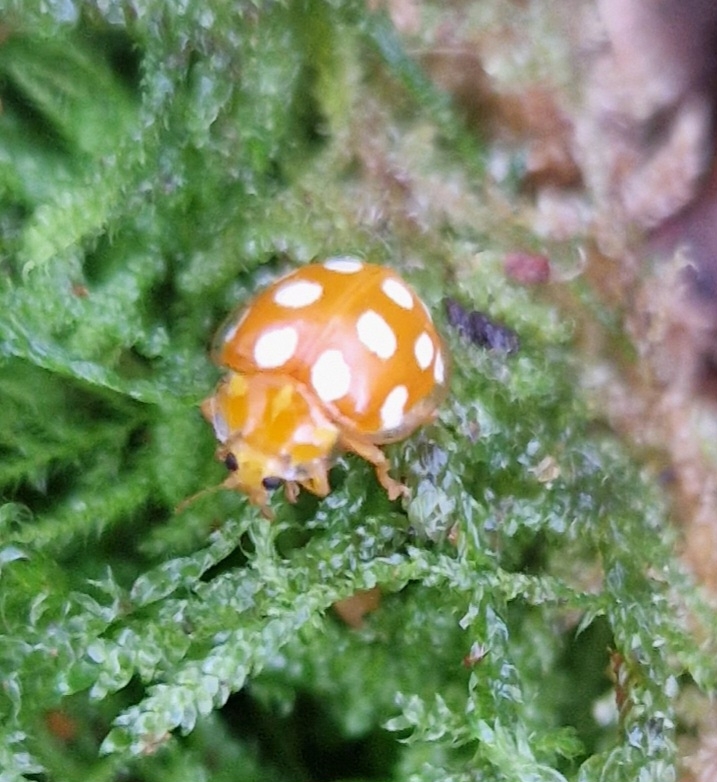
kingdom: Animalia
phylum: Arthropoda
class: Insecta
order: Coleoptera
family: Coccinellidae
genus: Halyzia
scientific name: Halyzia sedecimguttata
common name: Sekstenplettet mariehøne
